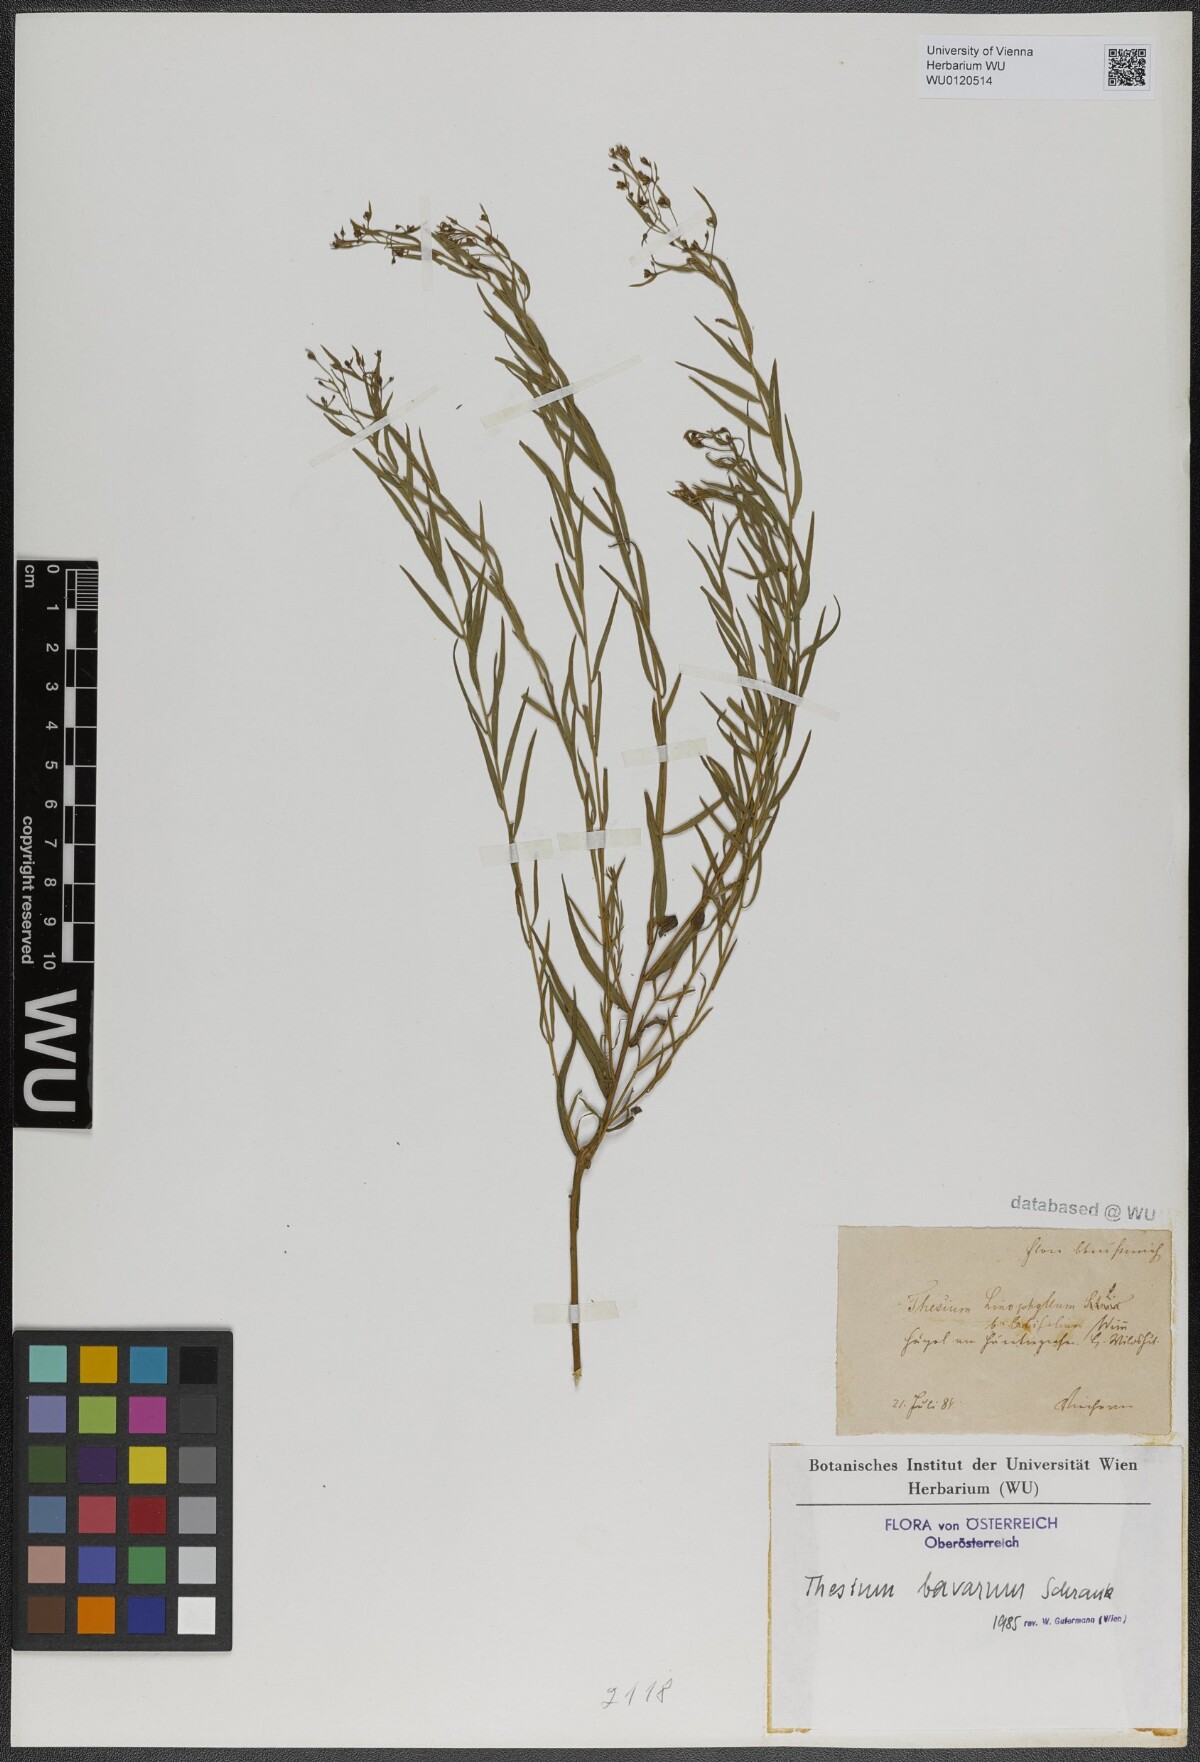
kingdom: Plantae
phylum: Tracheophyta
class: Magnoliopsida
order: Santalales
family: Thesiaceae
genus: Thesium
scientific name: Thesium bavarum
